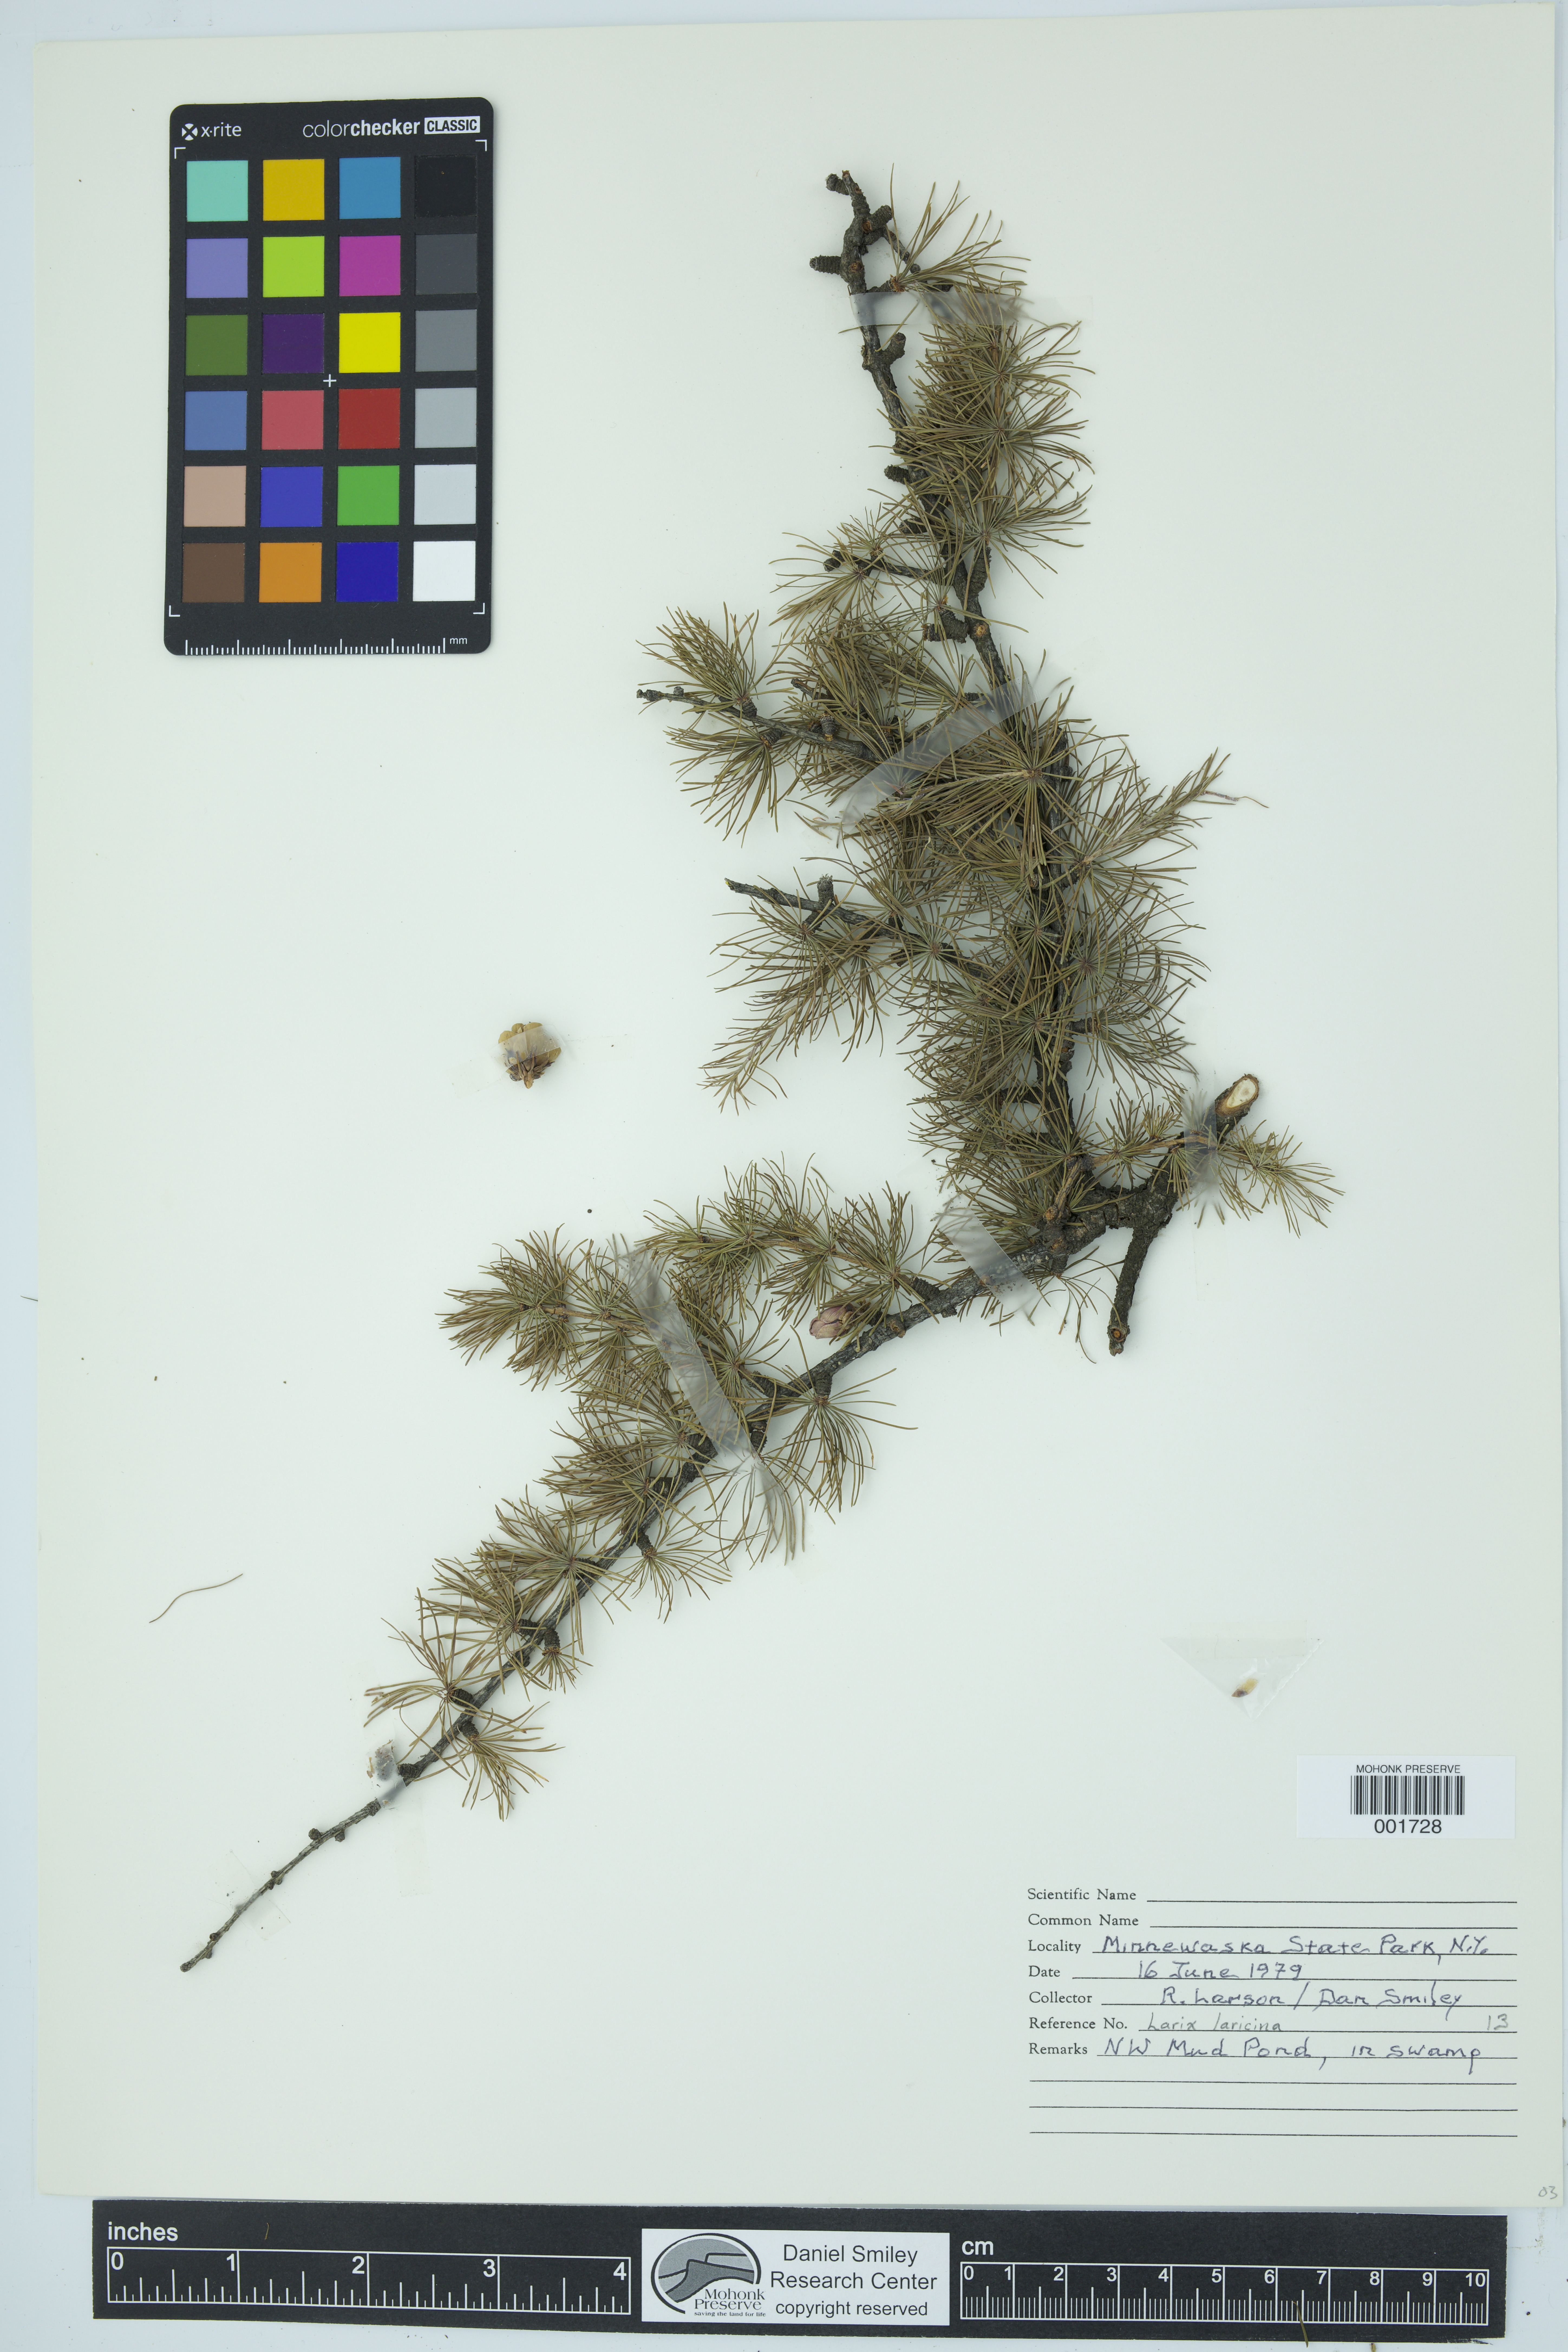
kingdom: Plantae
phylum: Tracheophyta
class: Pinopsida
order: Pinales
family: Pinaceae
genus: Larix
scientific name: Larix laricina
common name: American larch
